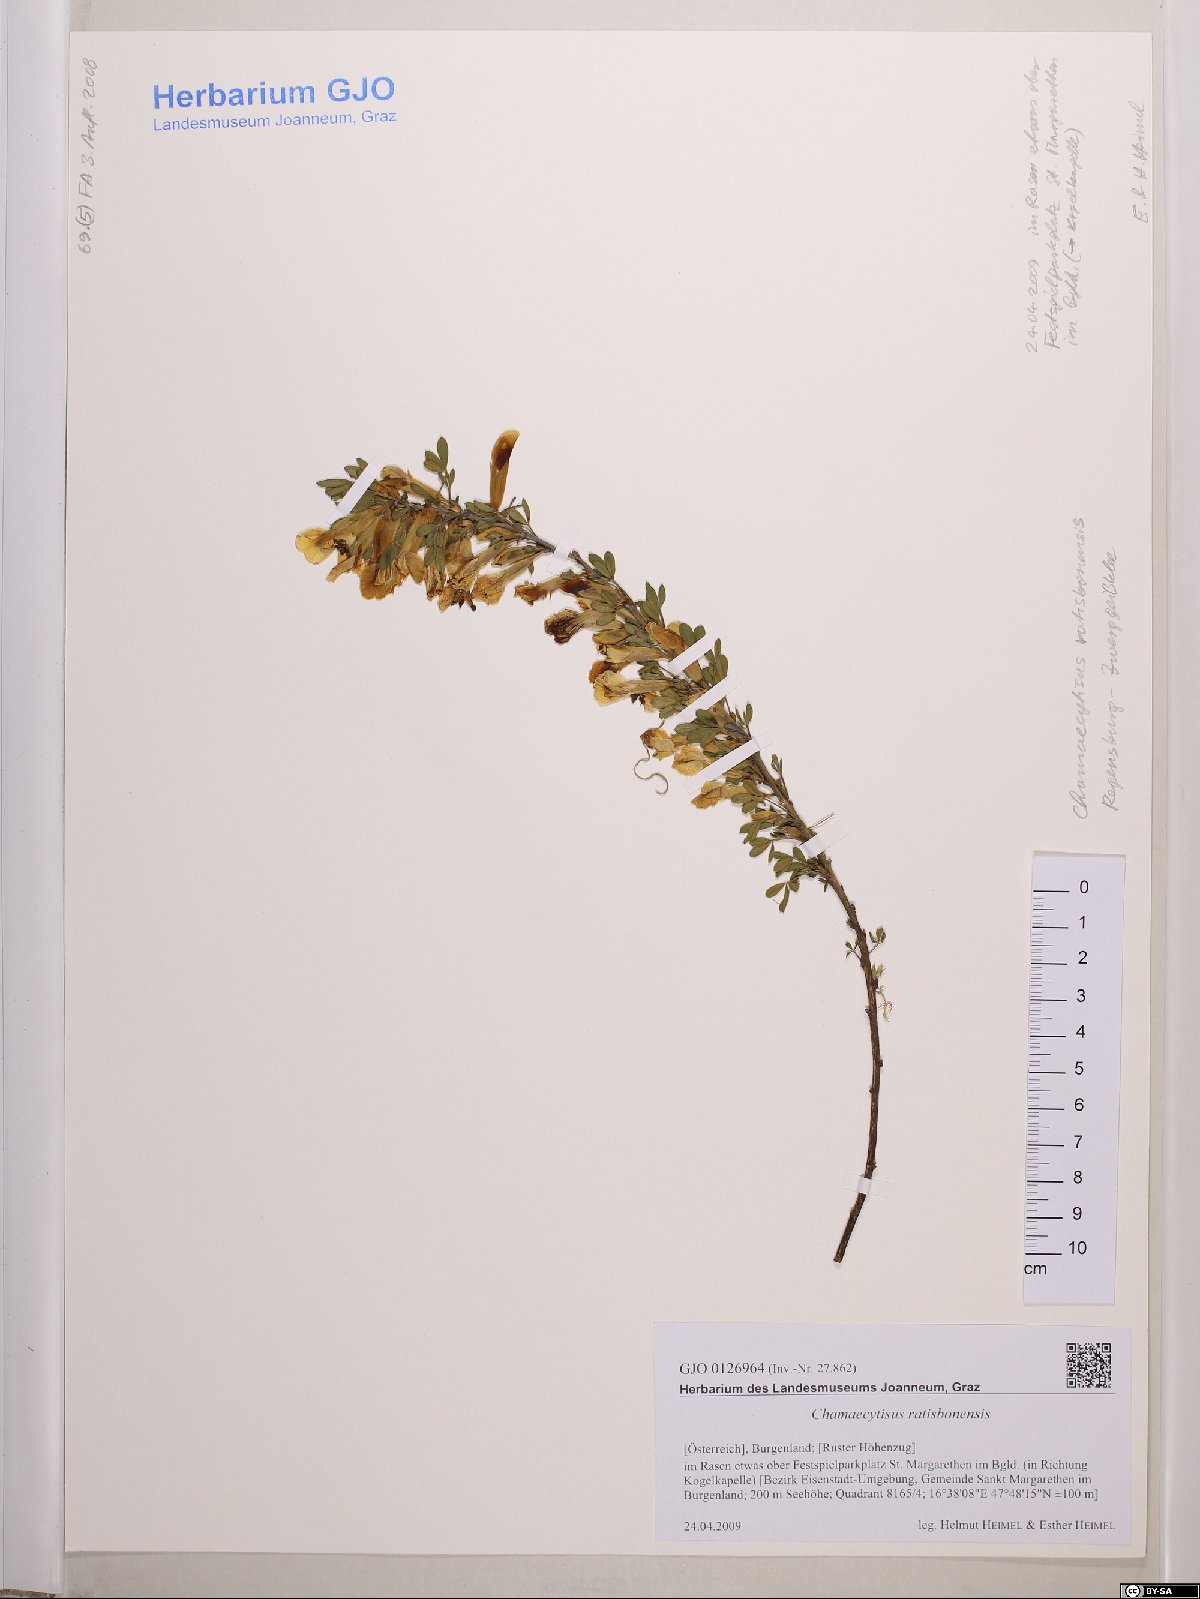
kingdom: Plantae
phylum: Tracheophyta
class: Magnoliopsida
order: Fabales
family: Fabaceae
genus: Chamaecytisus
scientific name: Chamaecytisus ratisbonensis
